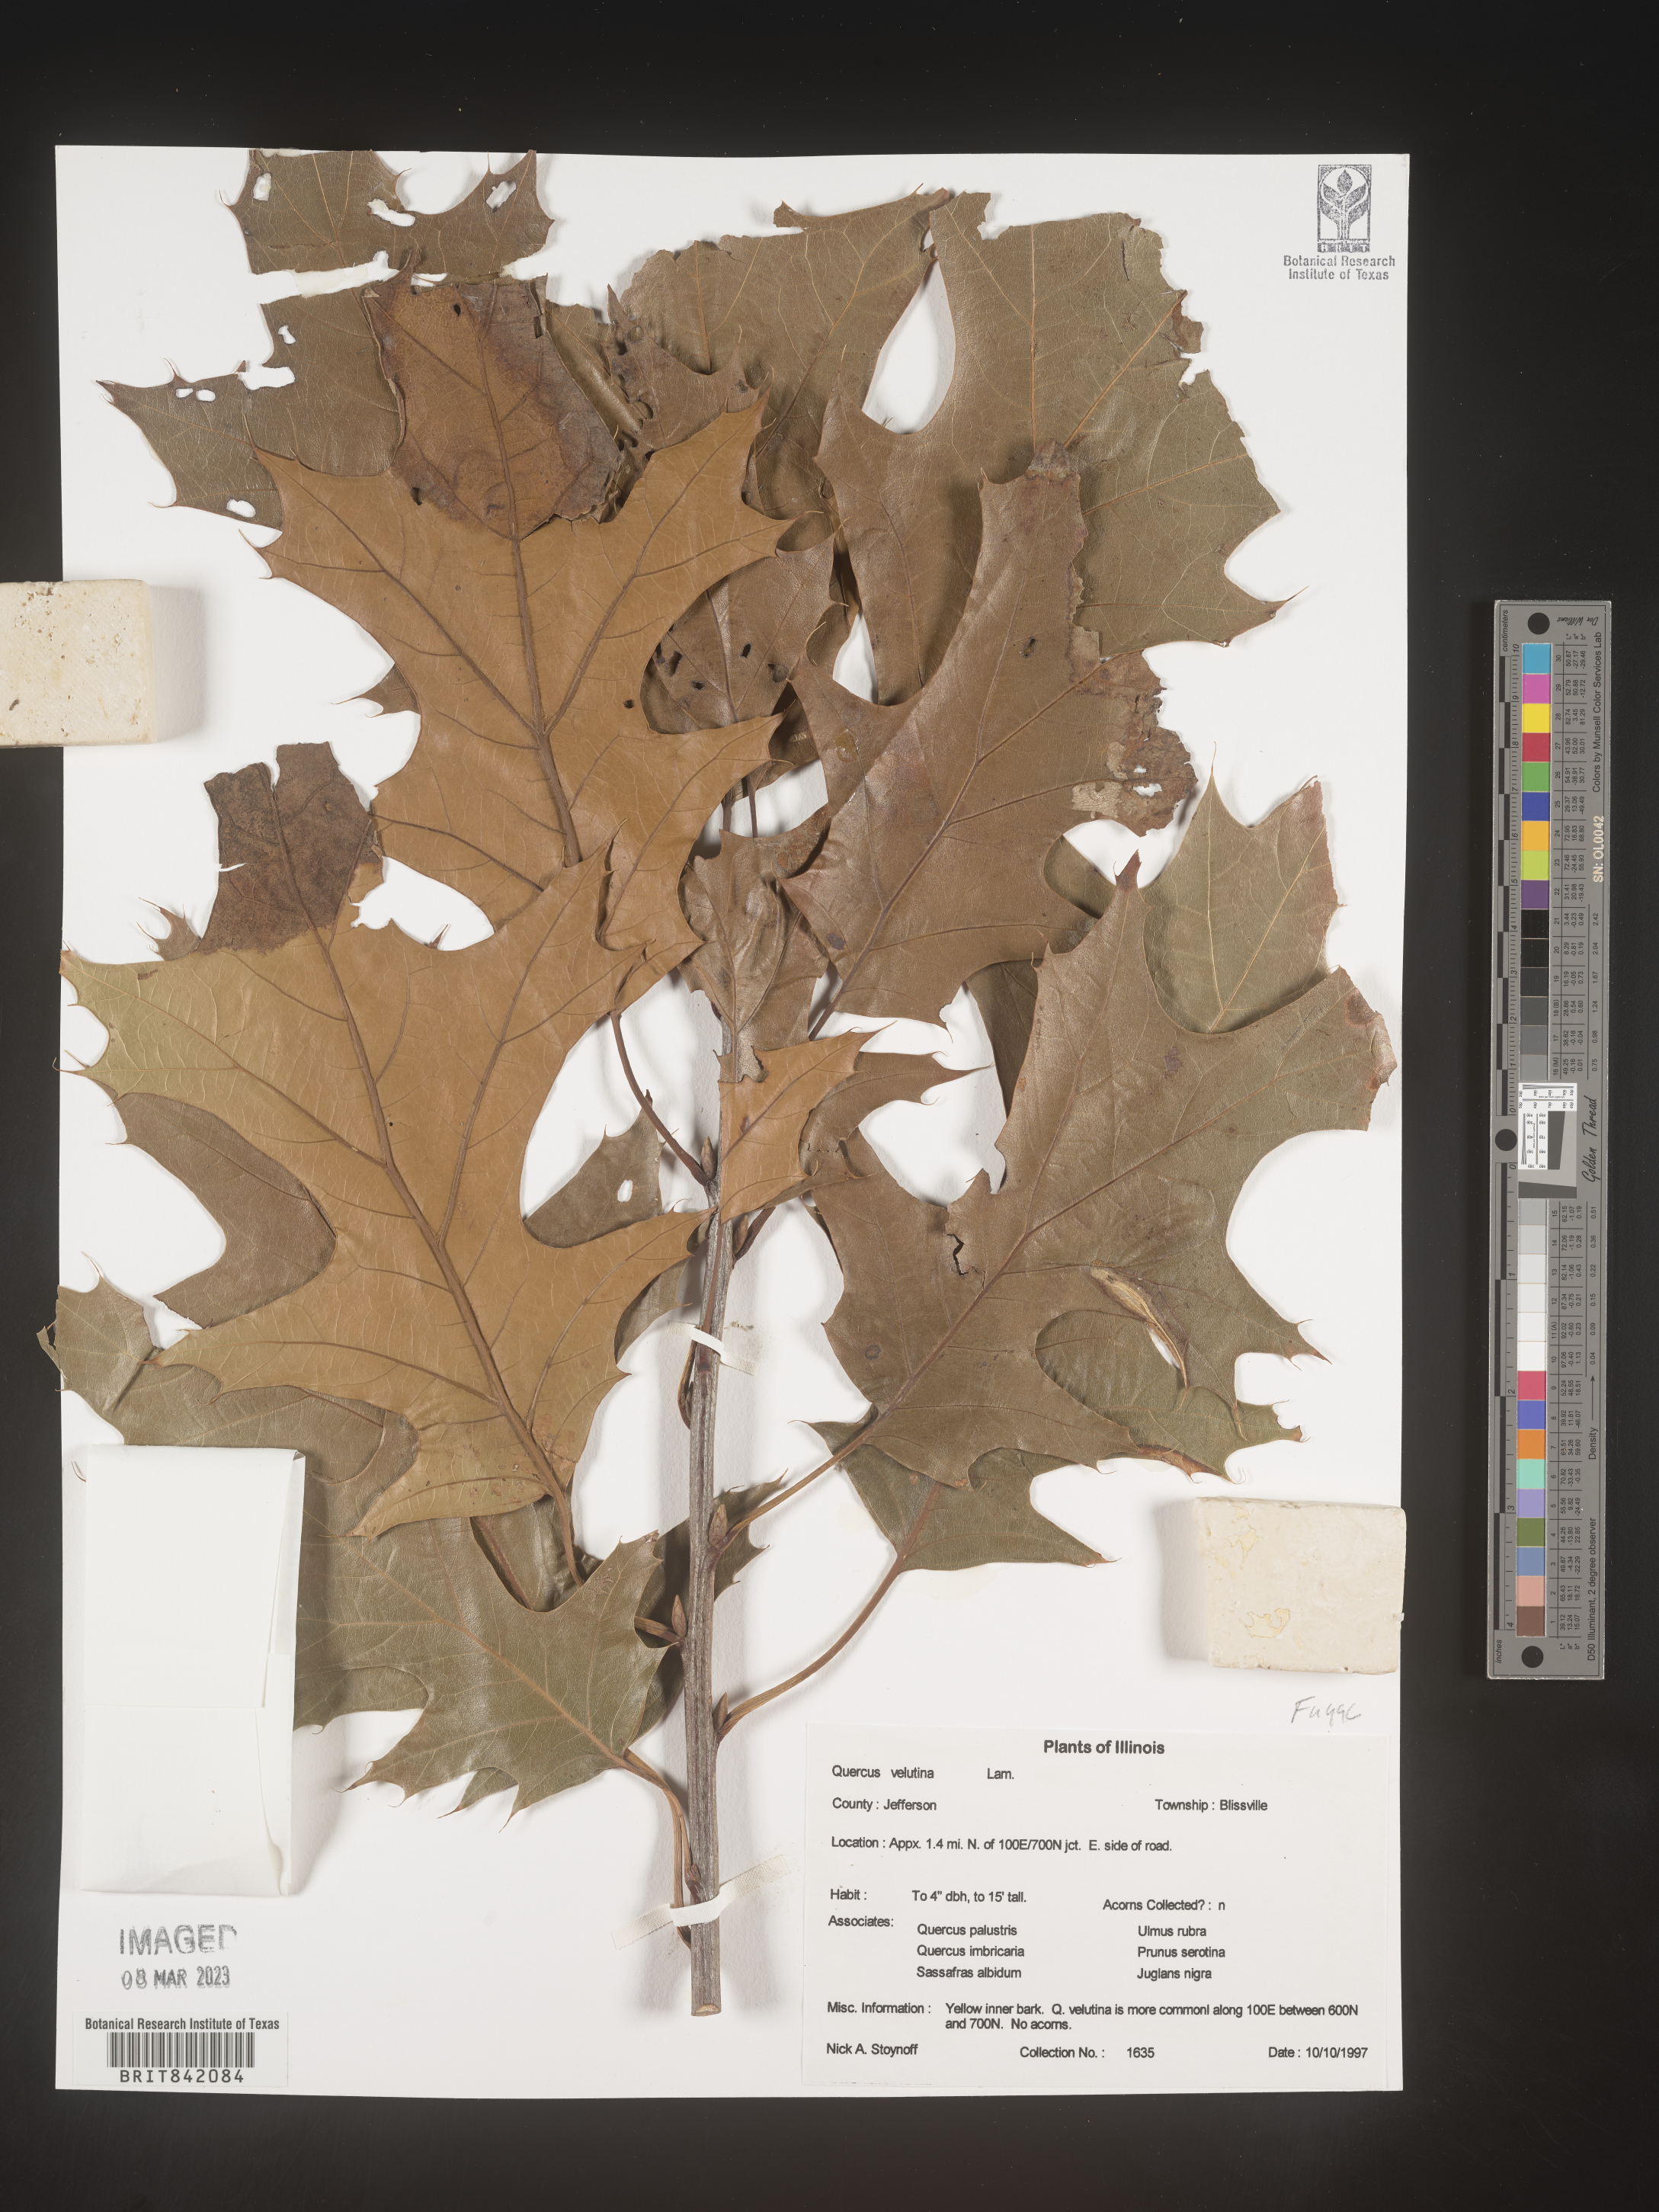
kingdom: Plantae
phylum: Tracheophyta
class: Magnoliopsida
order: Fagales
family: Fagaceae
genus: Quercus
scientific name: Quercus velutina
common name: Black oak
